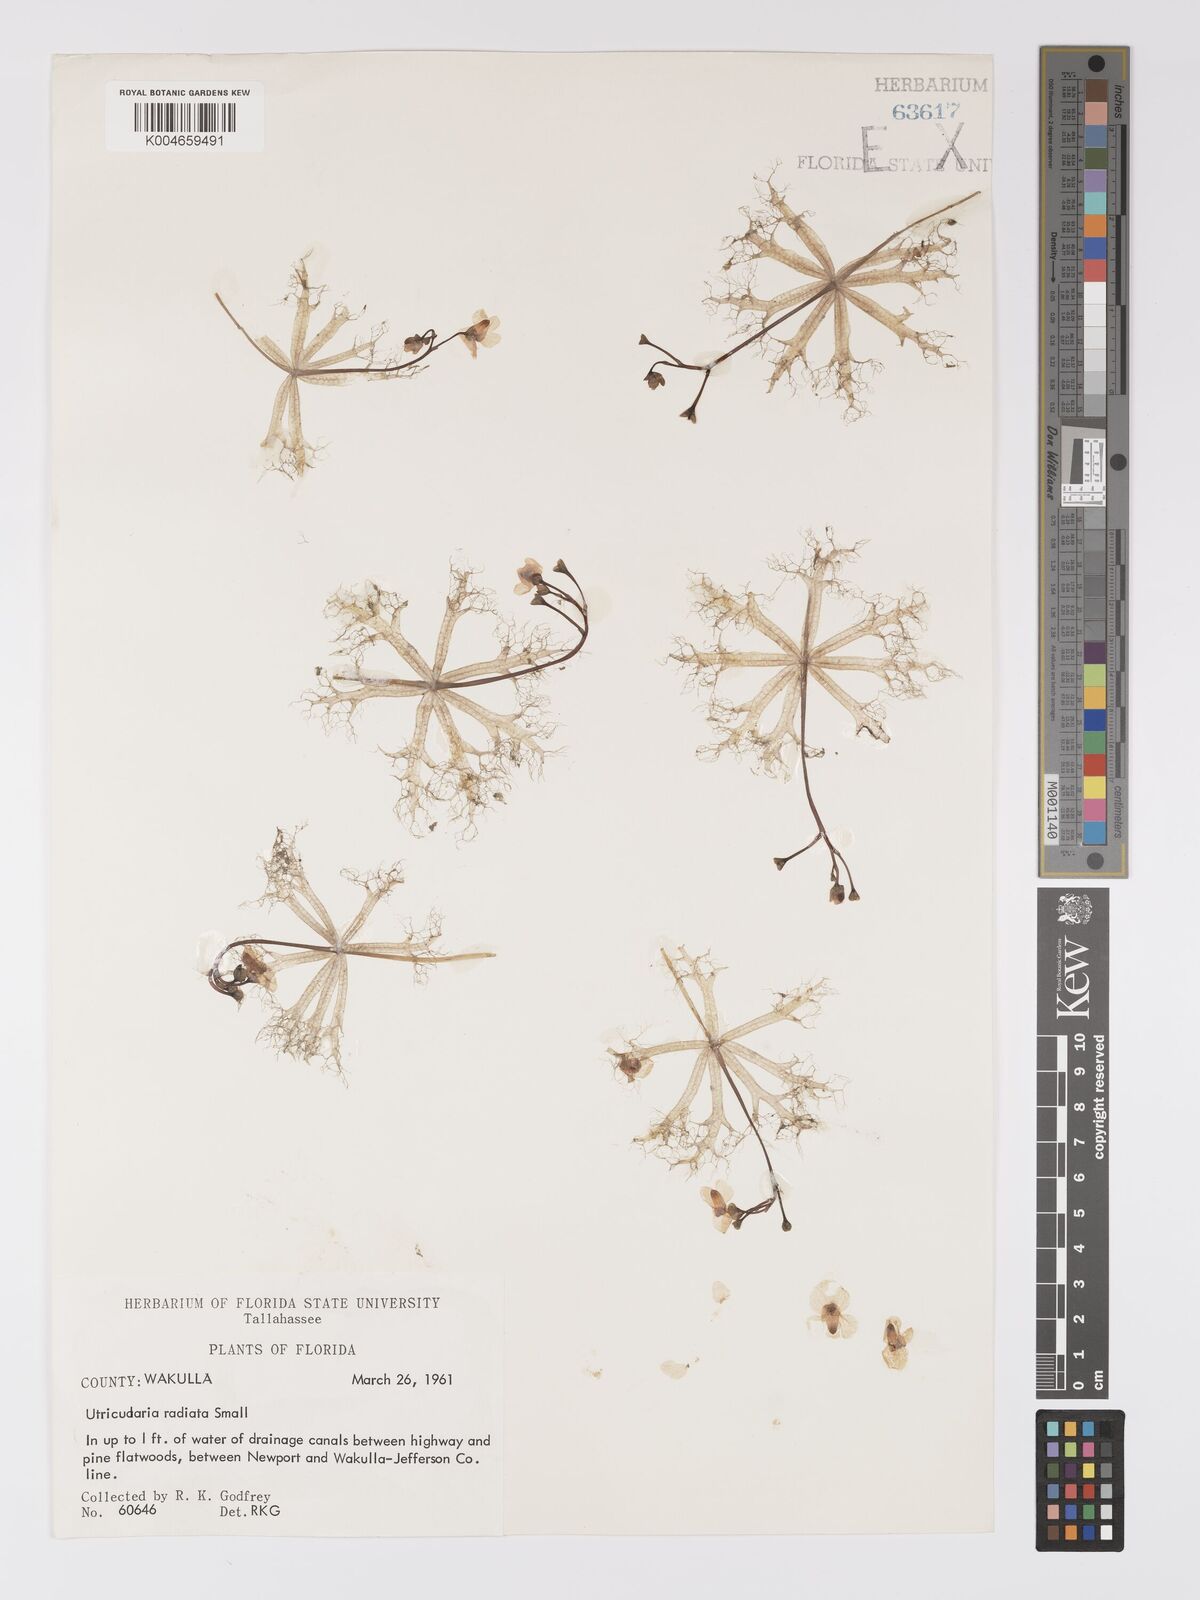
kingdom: Plantae
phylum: Tracheophyta
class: Magnoliopsida
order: Lamiales
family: Lentibulariaceae
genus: Utricularia
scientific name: Utricularia radiata
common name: Floating bladderwort
